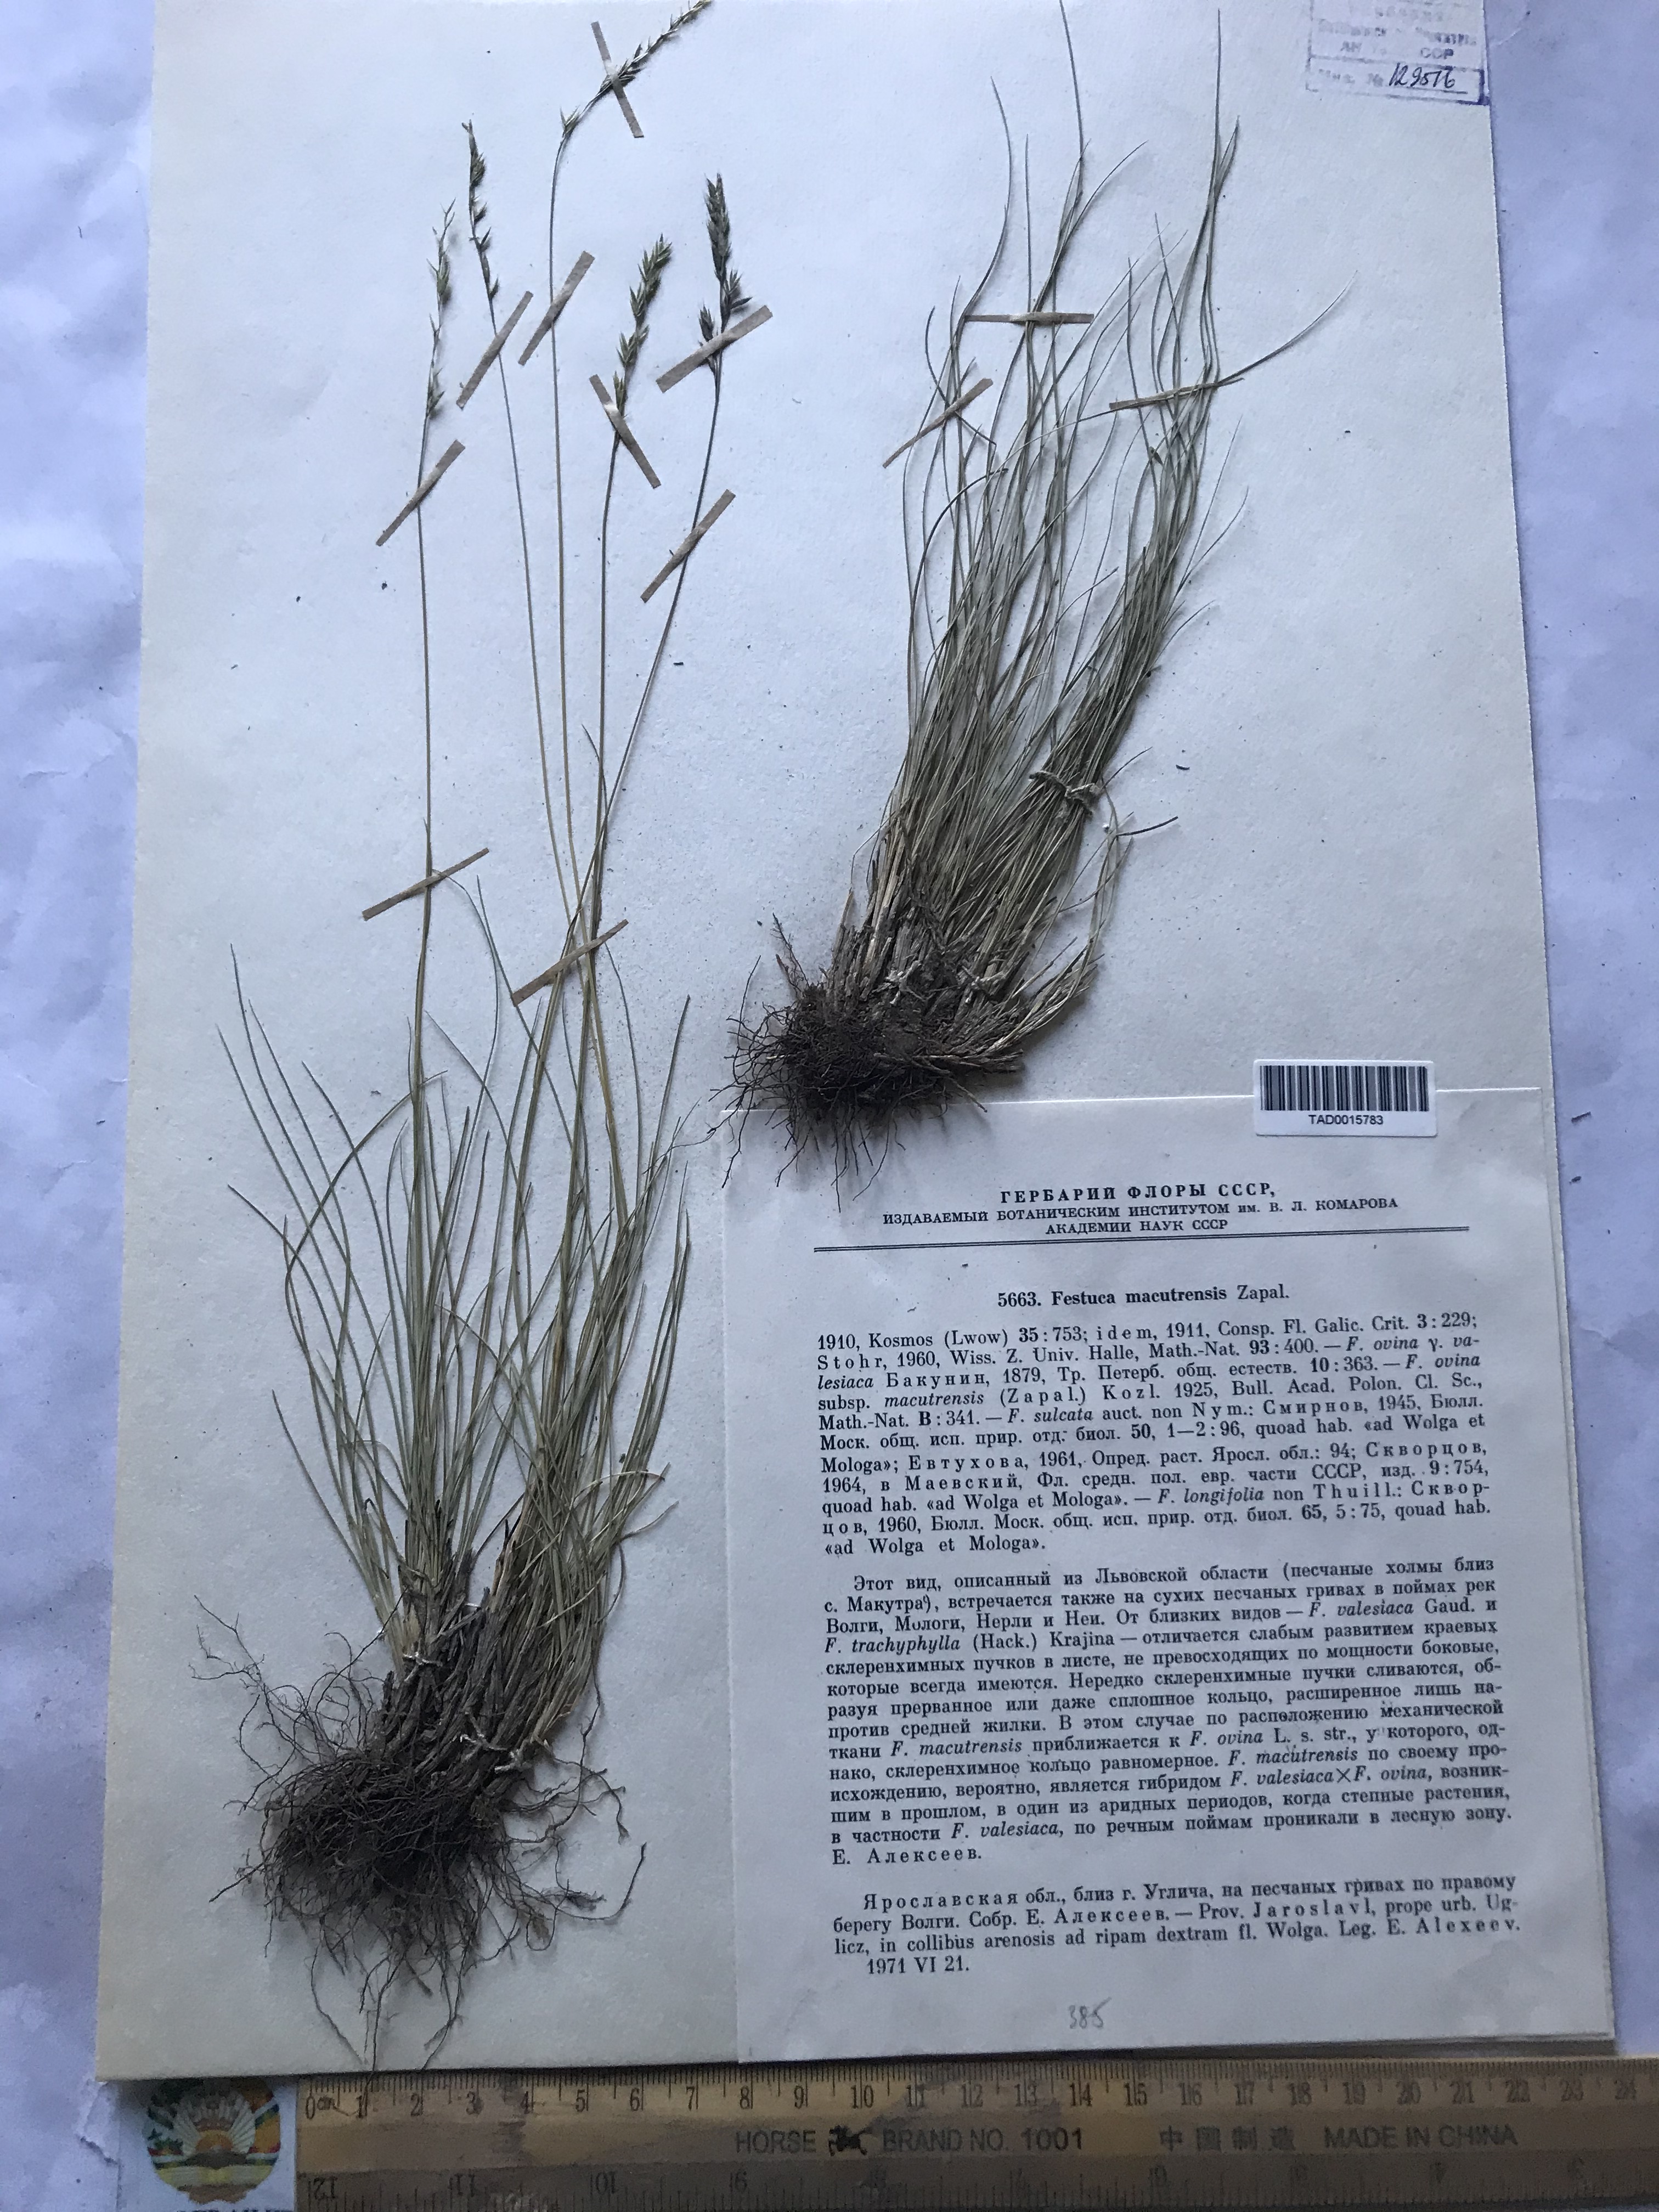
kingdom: Plantae
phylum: Tracheophyta
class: Liliopsida
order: Poales
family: Poaceae
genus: Festuca
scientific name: Festuca macutrensis
